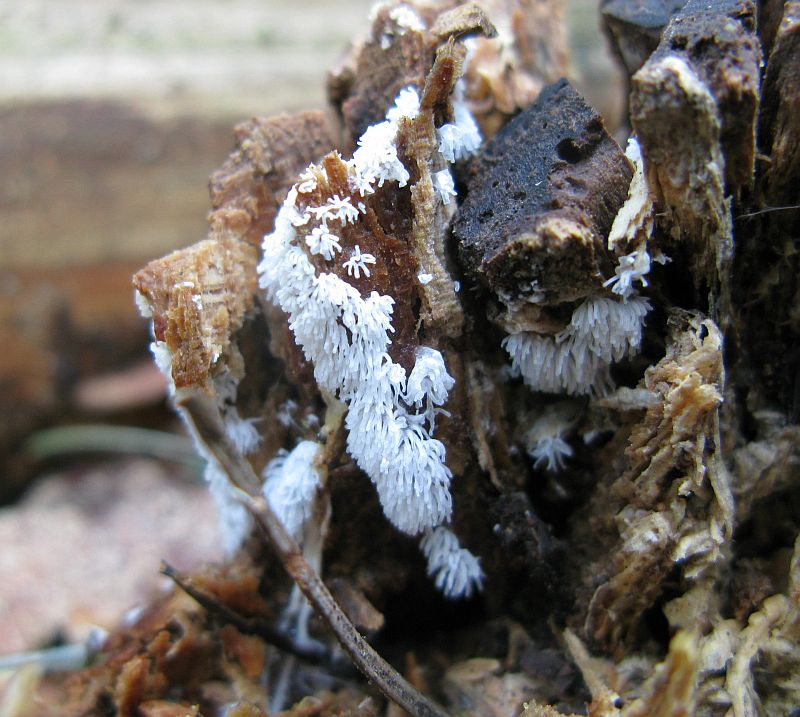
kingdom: Protozoa
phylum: Mycetozoa
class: Protosteliomycetes
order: Ceratiomyxales
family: Ceratiomyxaceae
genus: Ceratiomyxa
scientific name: Ceratiomyxa fruticulosa
